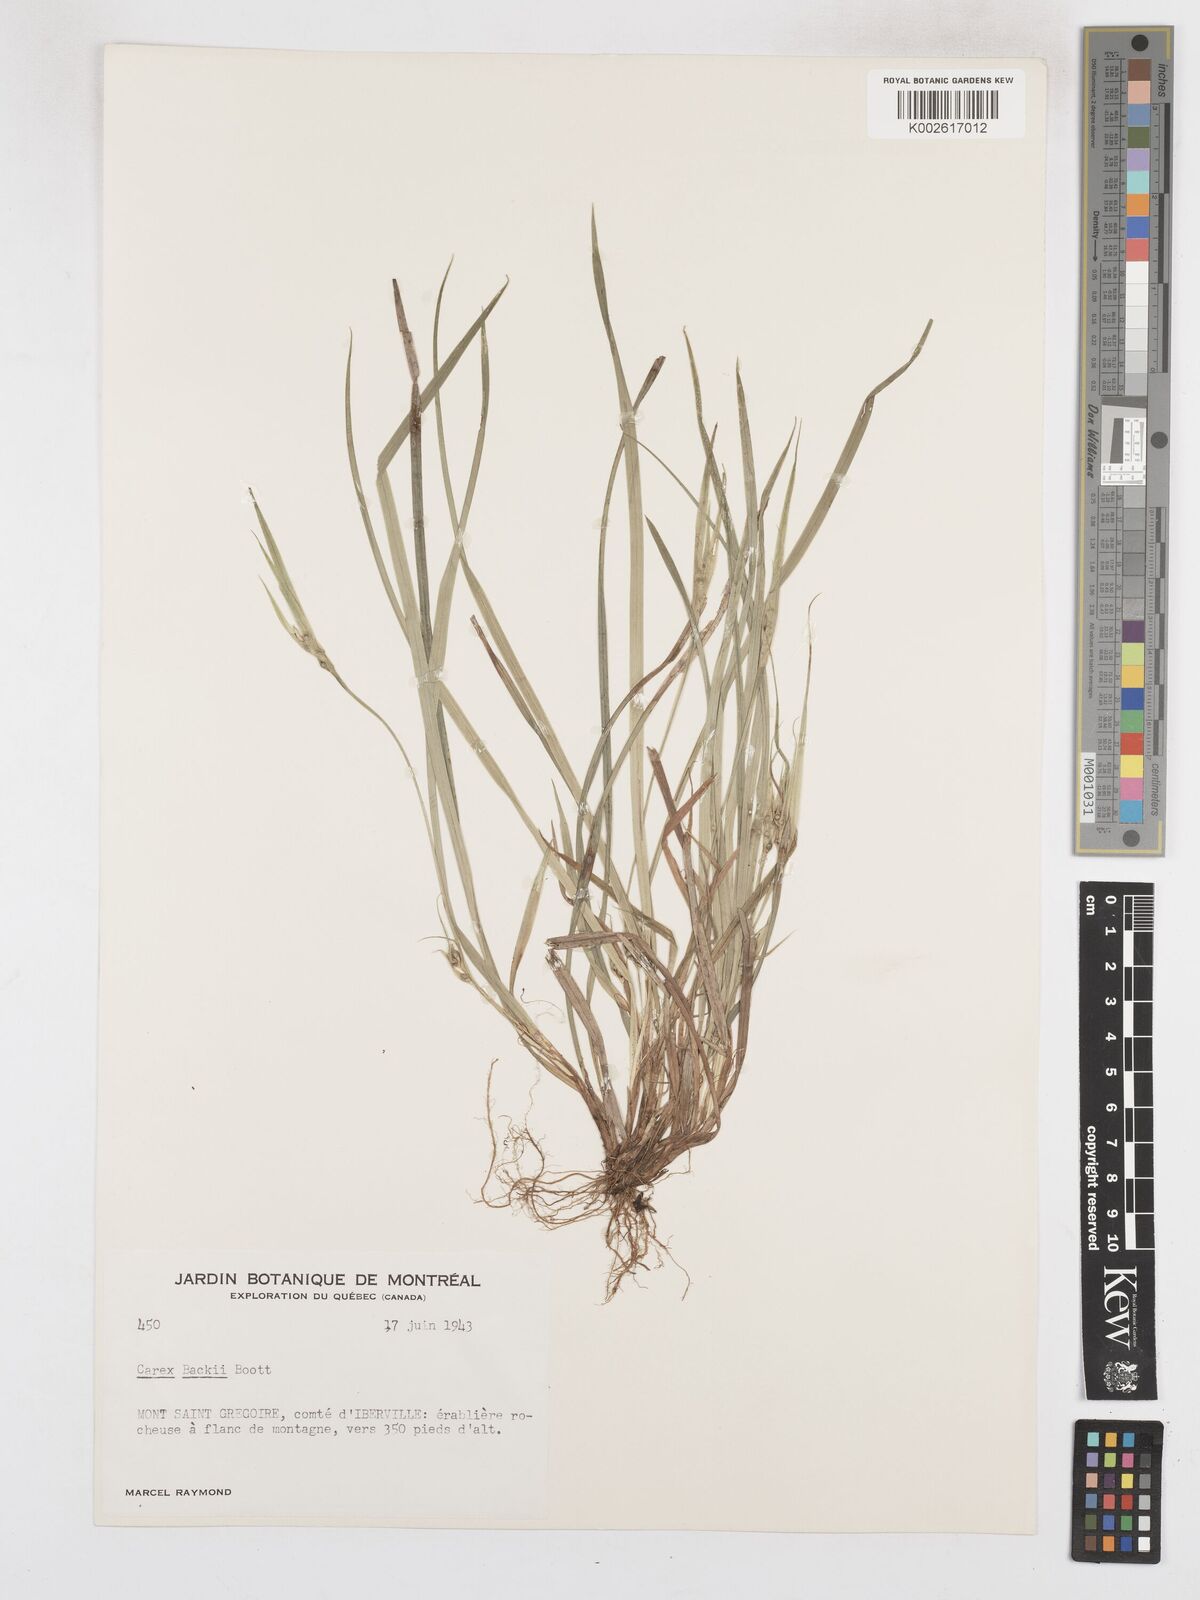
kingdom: Plantae
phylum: Tracheophyta
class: Liliopsida
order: Poales
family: Cyperaceae
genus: Carex
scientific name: Carex backii
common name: Back's sedge
